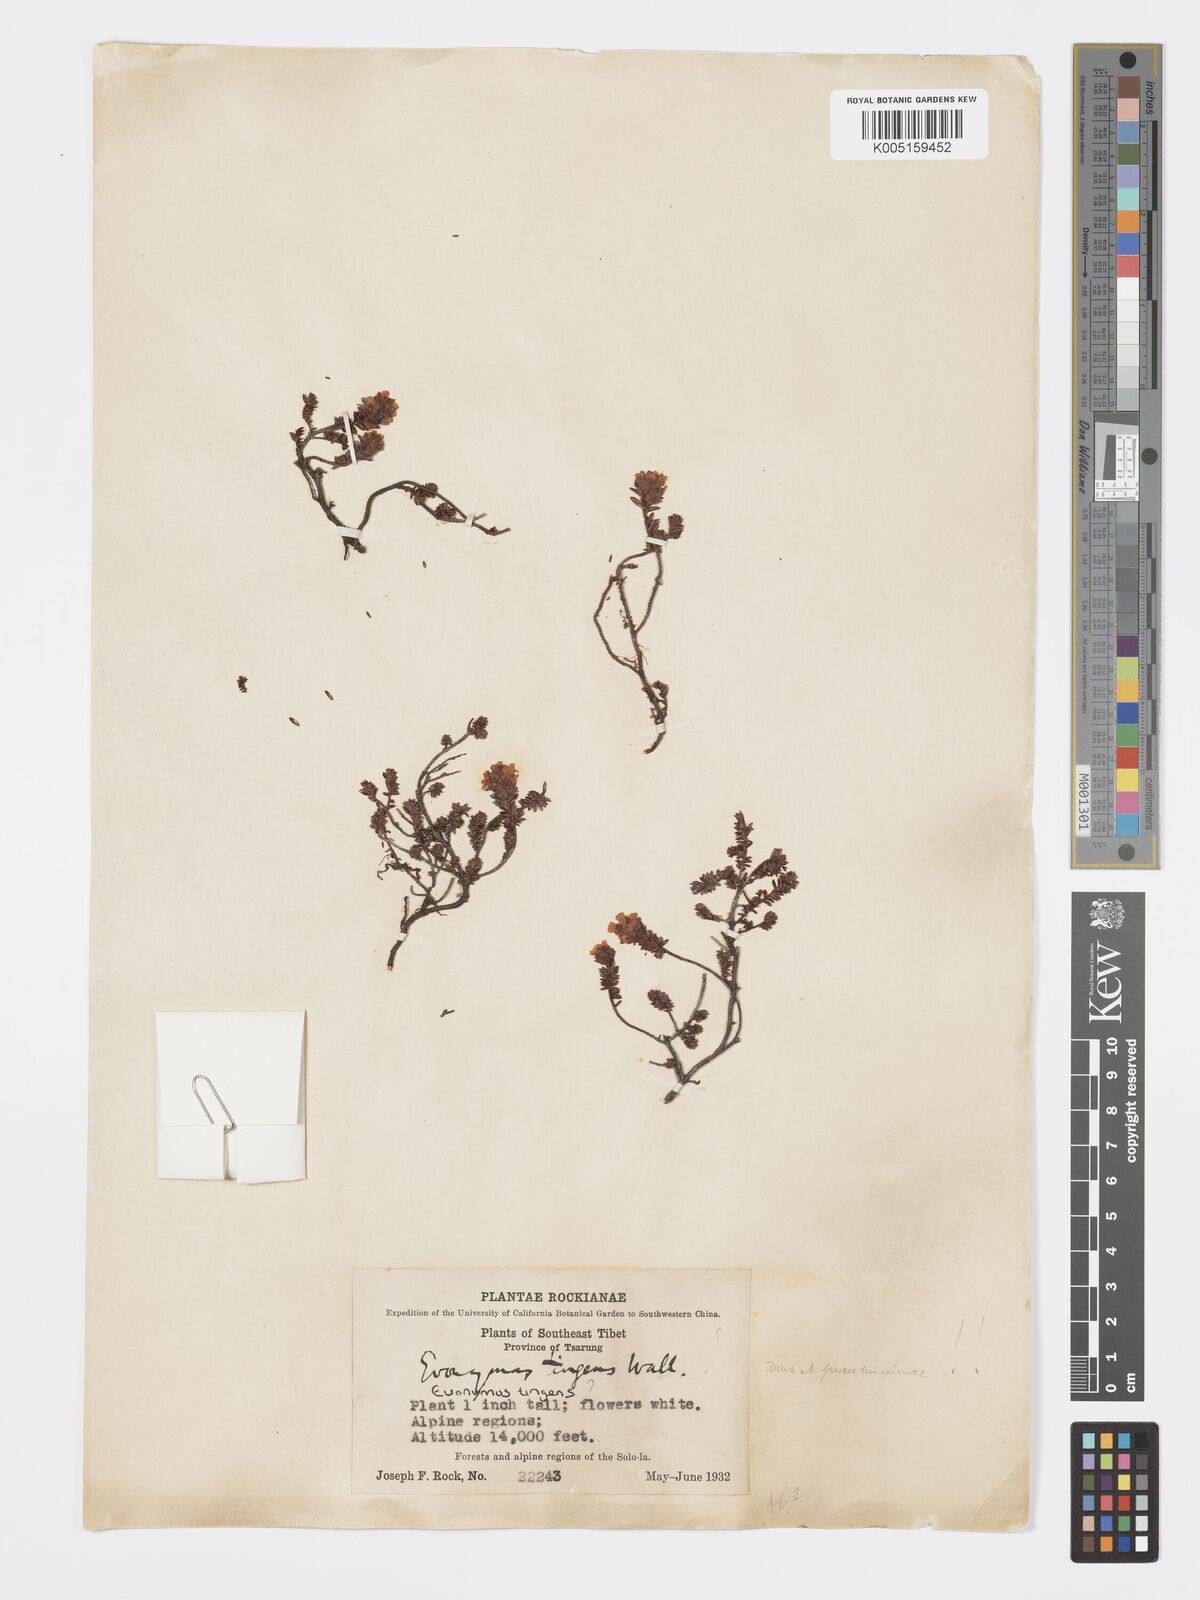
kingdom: Plantae
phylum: Tracheophyta
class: Magnoliopsida
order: Celastrales
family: Celastraceae
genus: Euonymus
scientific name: Euonymus tingens
